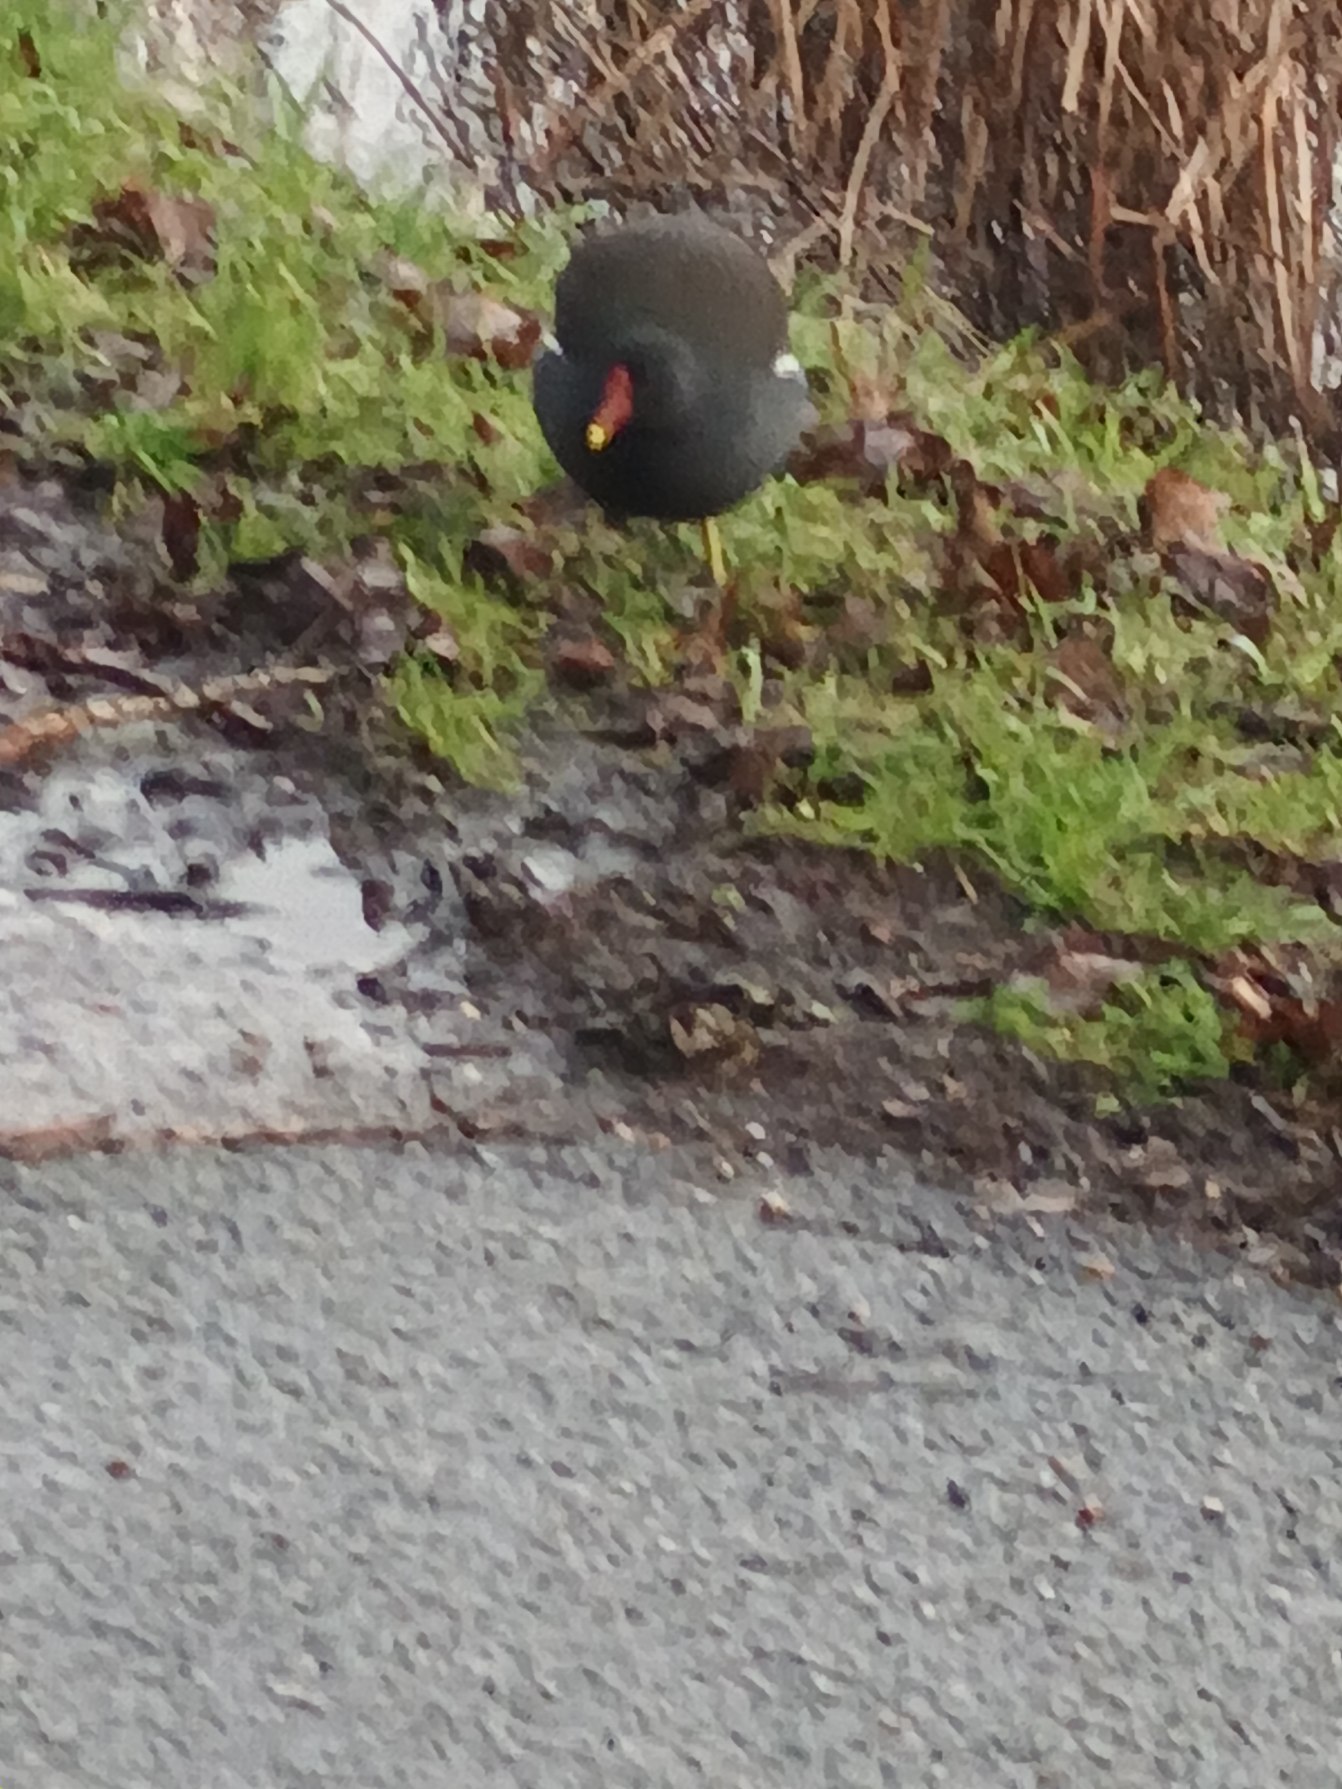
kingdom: Animalia
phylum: Chordata
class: Aves
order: Gruiformes
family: Rallidae
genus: Gallinula
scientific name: Gallinula chloropus
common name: Grønbenet rørhøne
